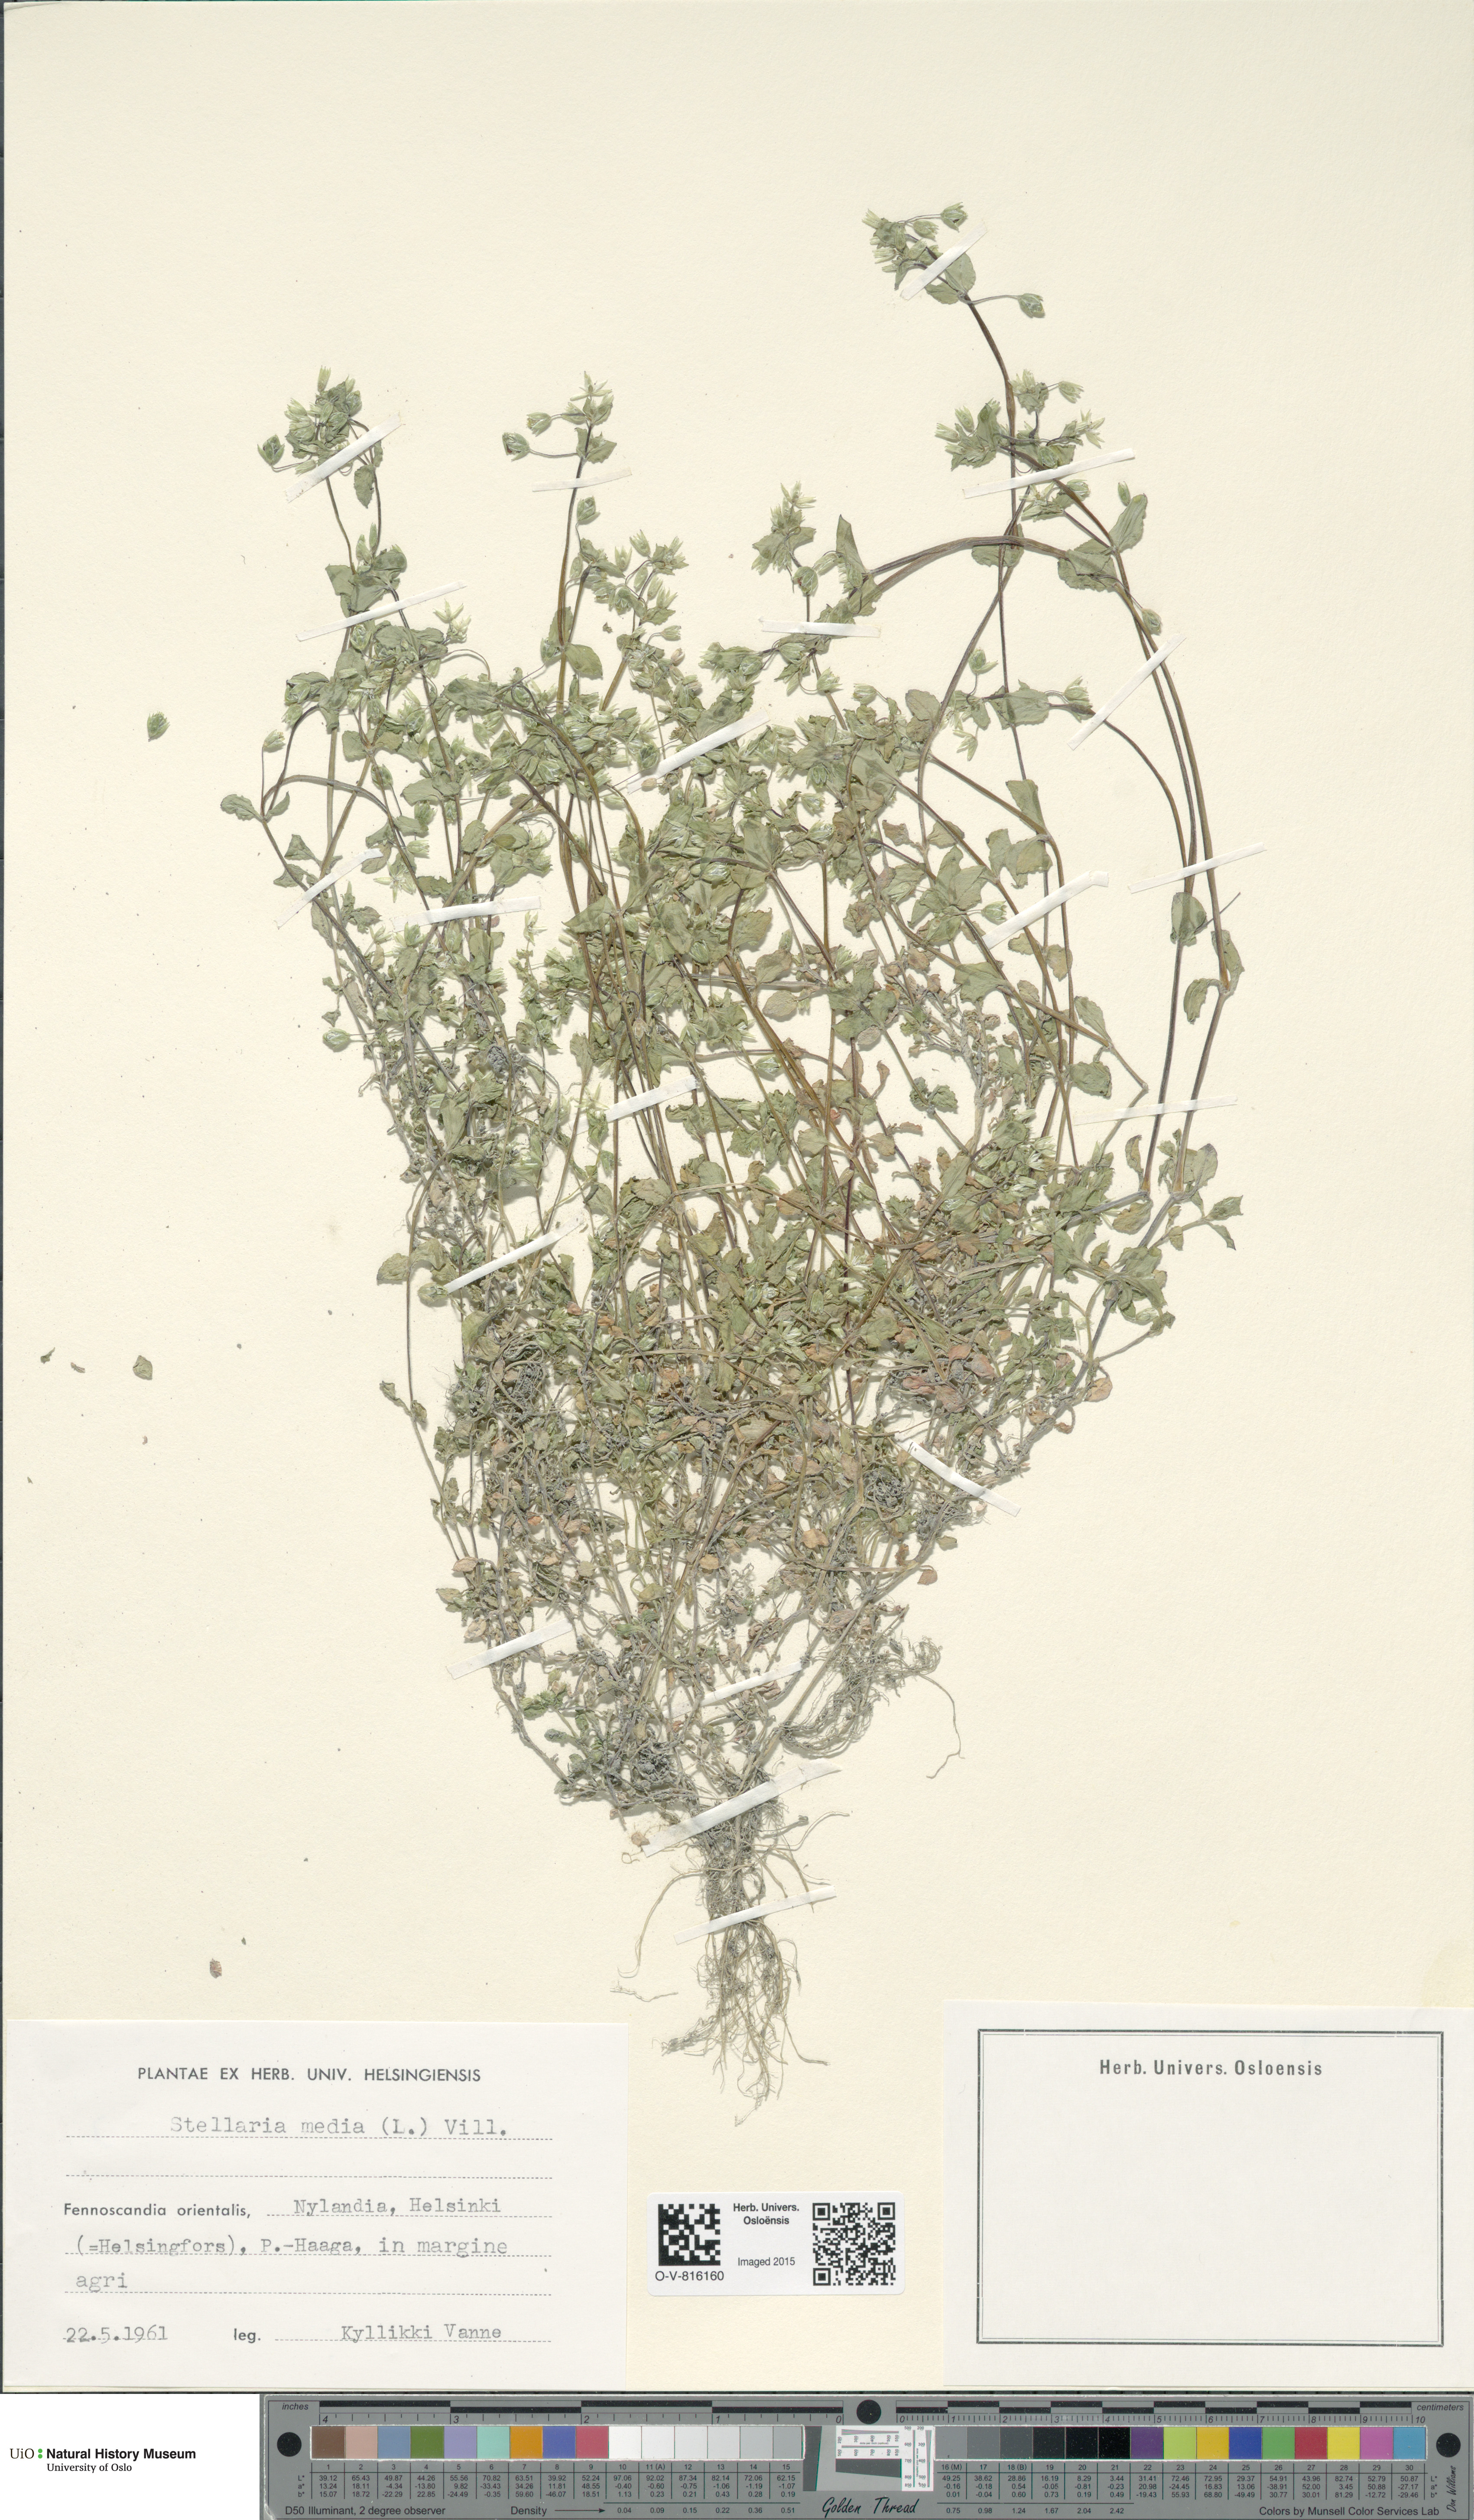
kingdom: Plantae
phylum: Tracheophyta
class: Magnoliopsida
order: Caryophyllales
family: Caryophyllaceae
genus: Stellaria
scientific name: Stellaria media
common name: Common chickweed
